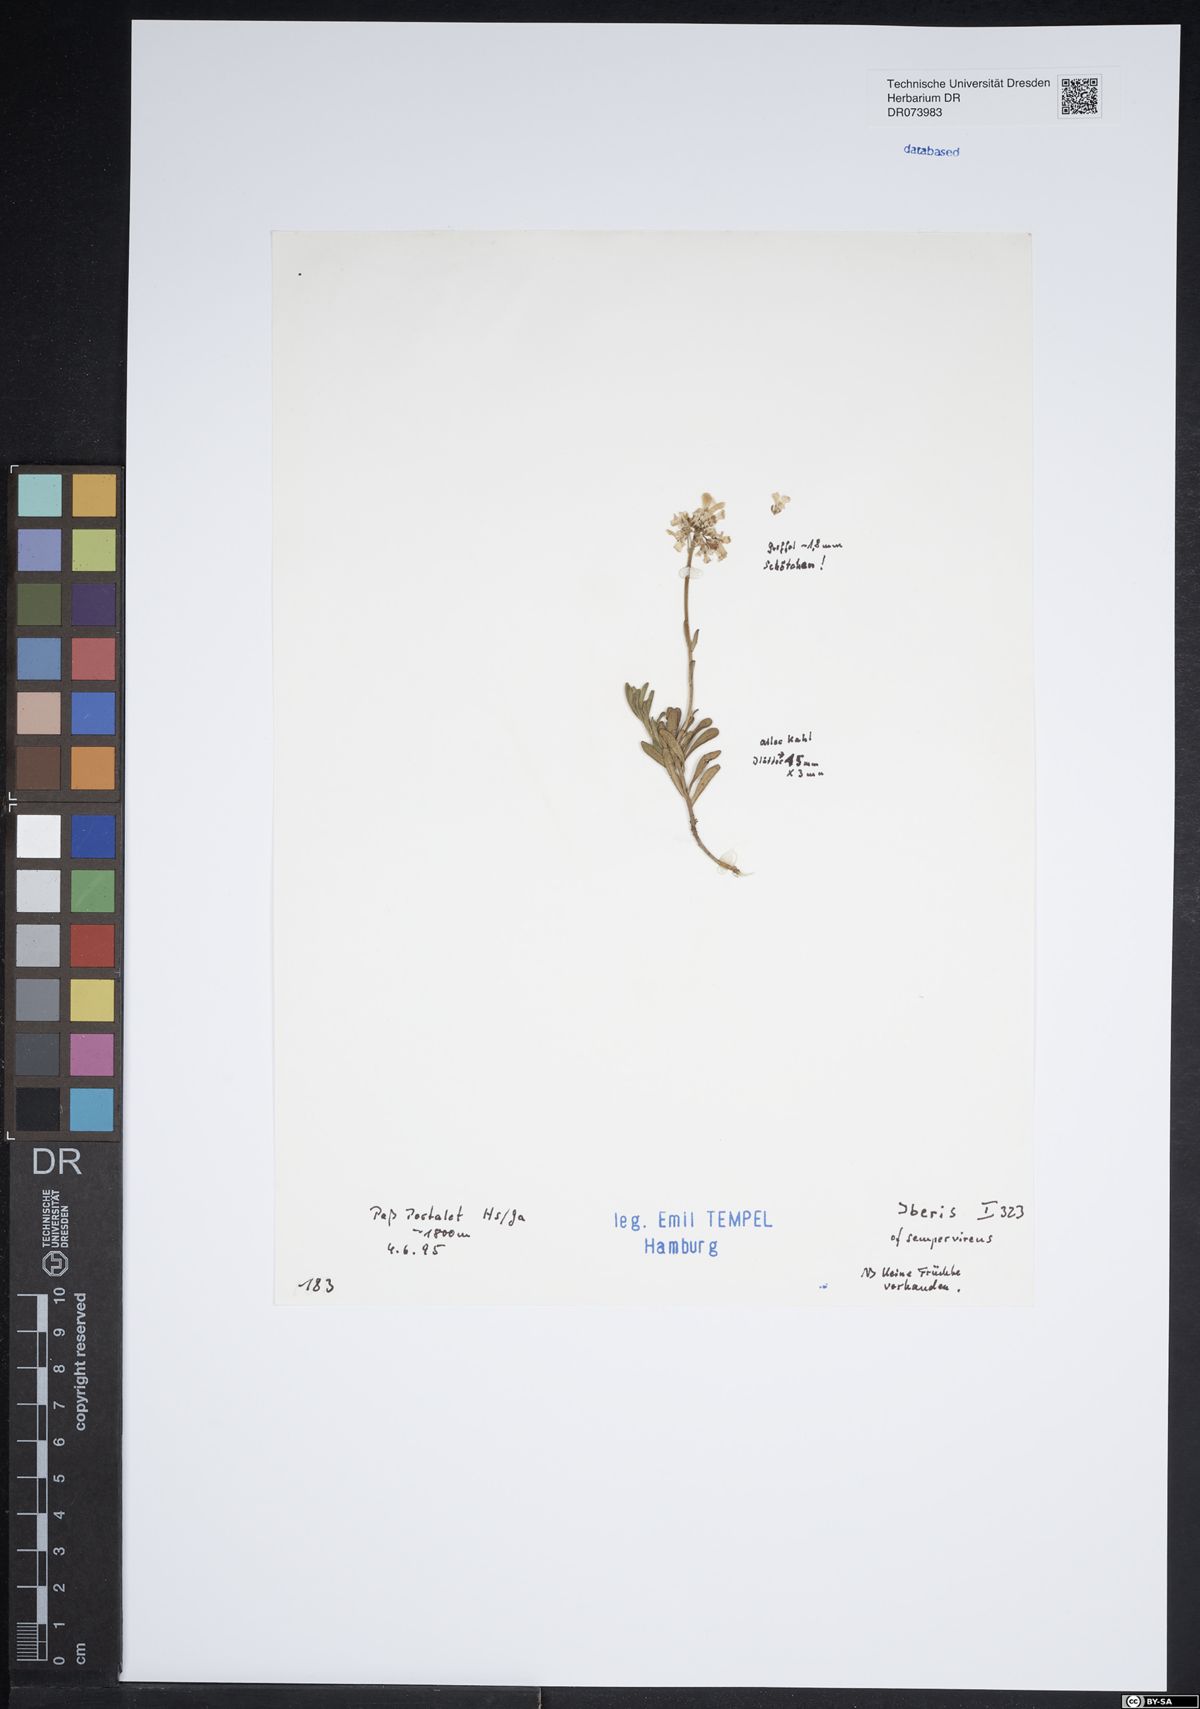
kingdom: Plantae
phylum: Tracheophyta
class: Magnoliopsida
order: Brassicales
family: Brassicaceae
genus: Iberis
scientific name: Iberis
